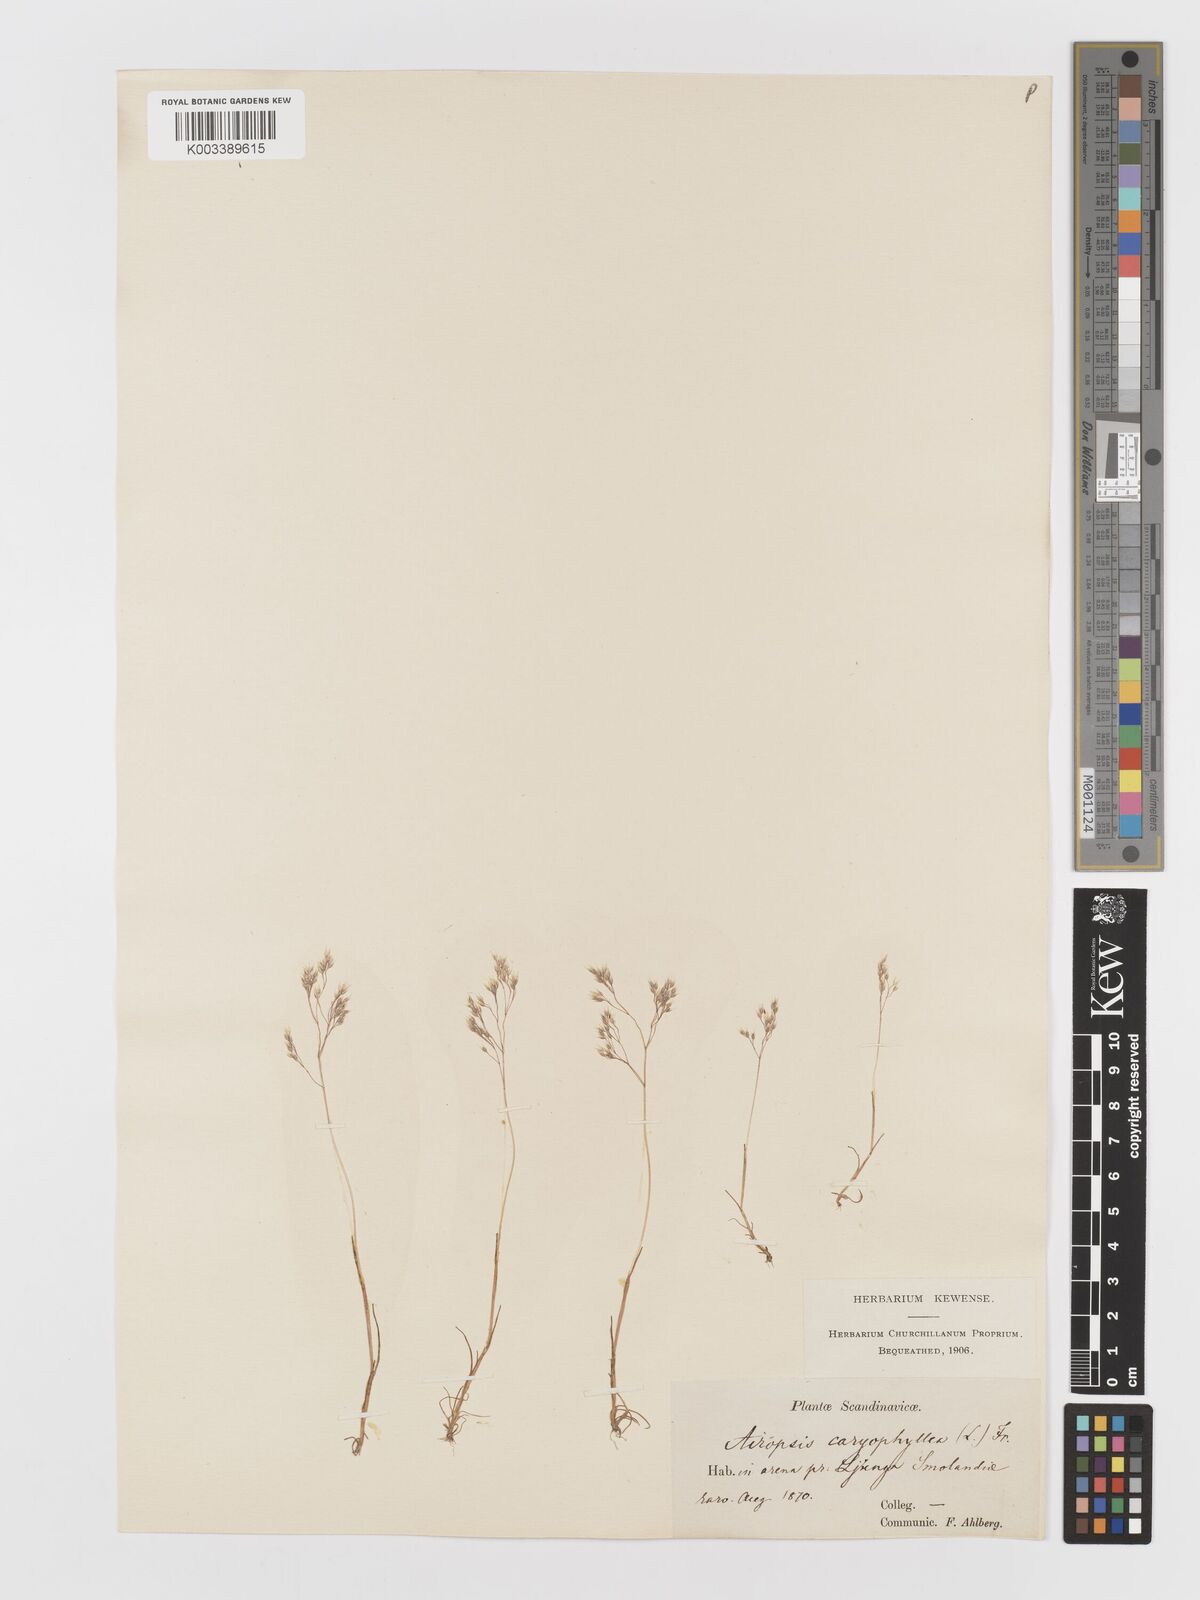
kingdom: Plantae
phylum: Tracheophyta
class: Liliopsida
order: Poales
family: Poaceae
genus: Aira
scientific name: Aira caryophyllea
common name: Silver hairgrass
